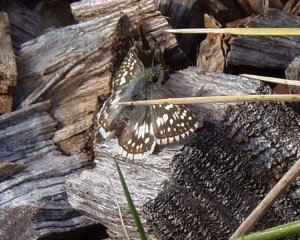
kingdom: Animalia
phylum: Arthropoda
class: Insecta
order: Lepidoptera
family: Hesperiidae
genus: Pyrgus
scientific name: Pyrgus communis
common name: Common Checkered-Skipper
